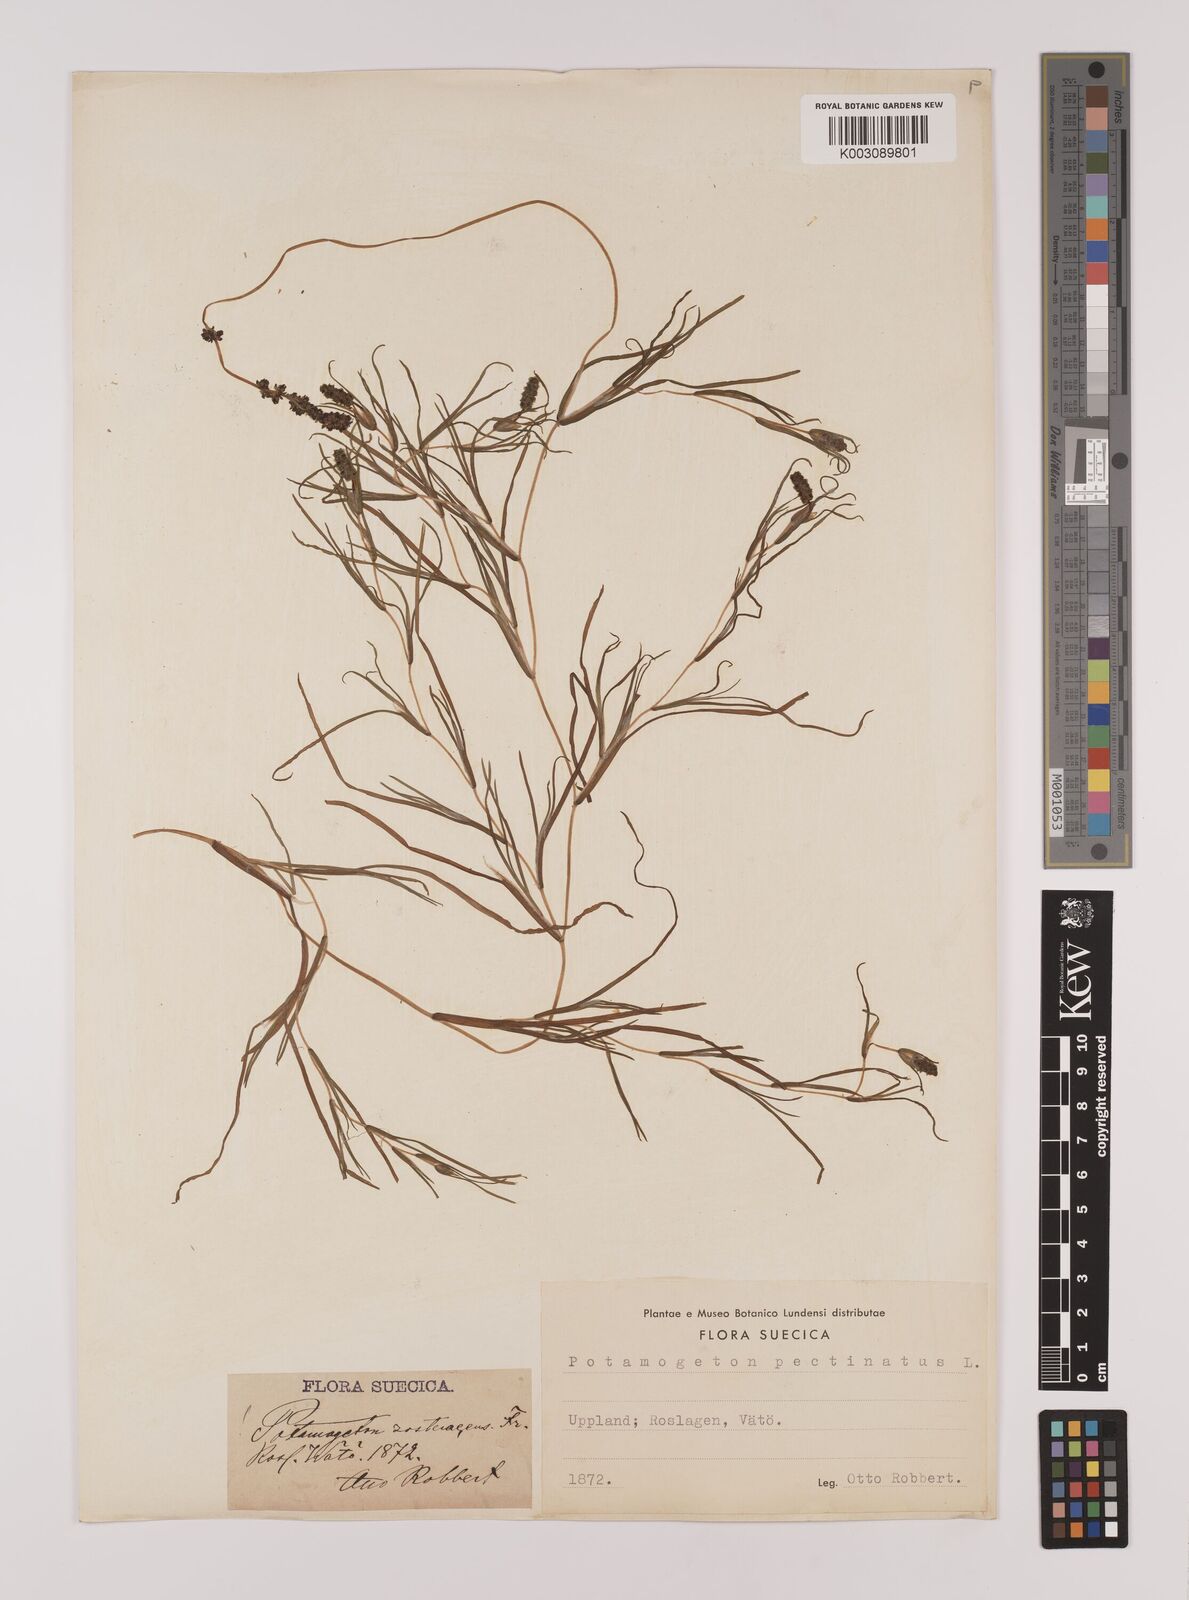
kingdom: Plantae
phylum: Tracheophyta
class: Liliopsida
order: Alismatales
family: Potamogetonaceae
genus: Stuckenia
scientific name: Stuckenia pectinata
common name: Sago pondweed
